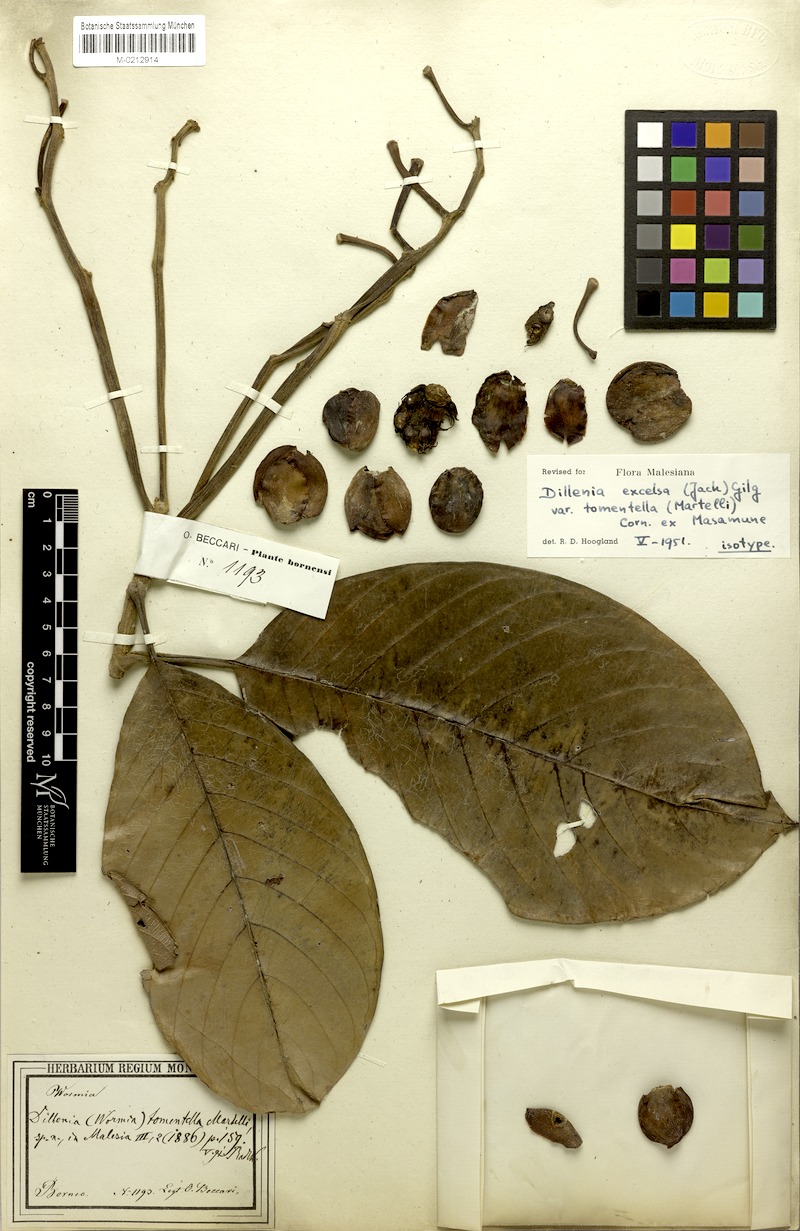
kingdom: Plantae
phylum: Tracheophyta
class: Magnoliopsida
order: Dilleniales
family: Dilleniaceae
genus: Dillenia
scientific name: Dillenia excelsa
